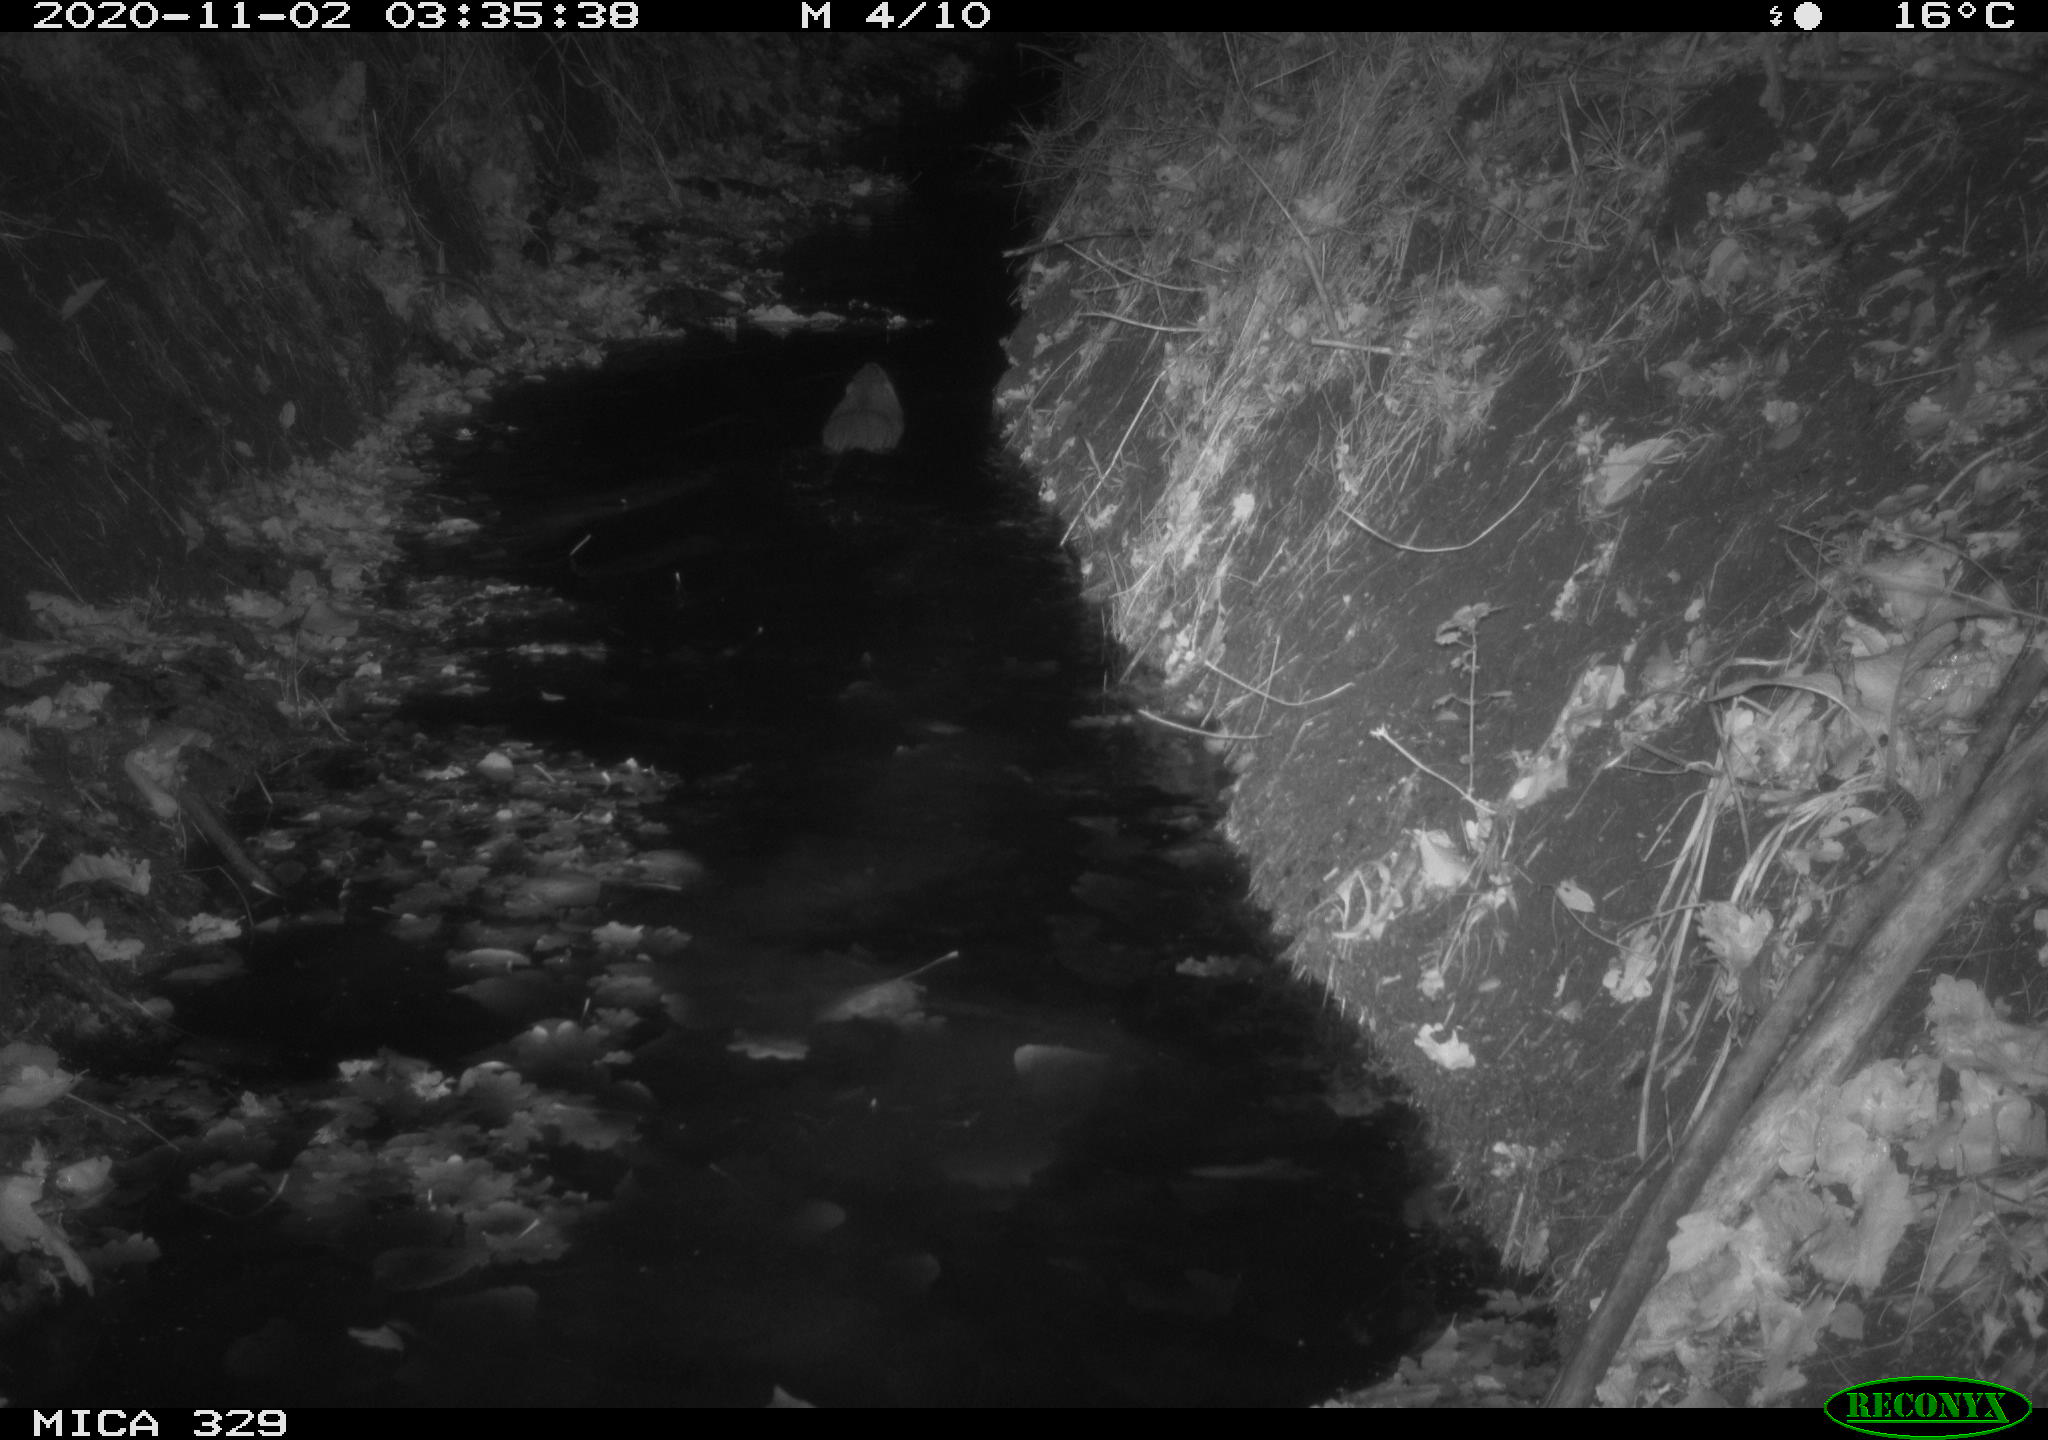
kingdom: Animalia
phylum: Chordata
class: Mammalia
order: Rodentia
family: Myocastoridae
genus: Myocastor
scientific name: Myocastor coypus
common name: Coypu
